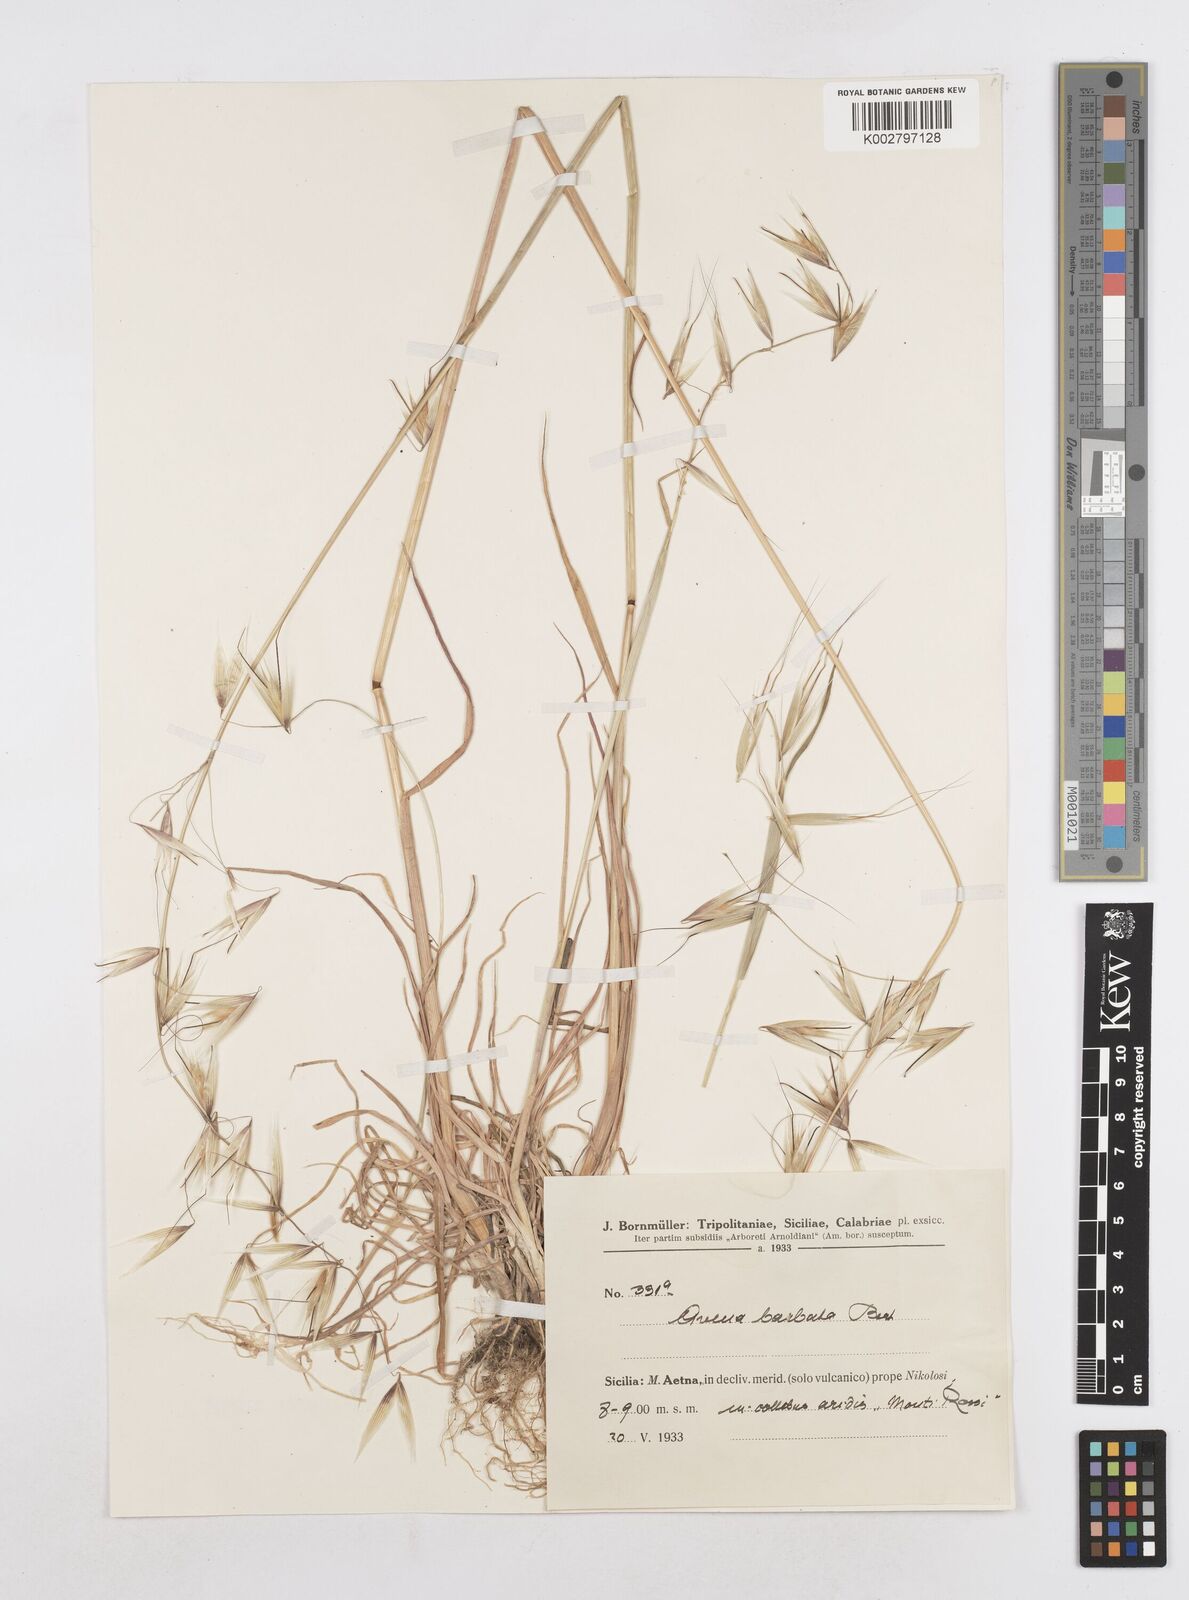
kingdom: Plantae
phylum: Tracheophyta
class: Liliopsida
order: Poales
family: Poaceae
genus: Avena
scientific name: Avena
